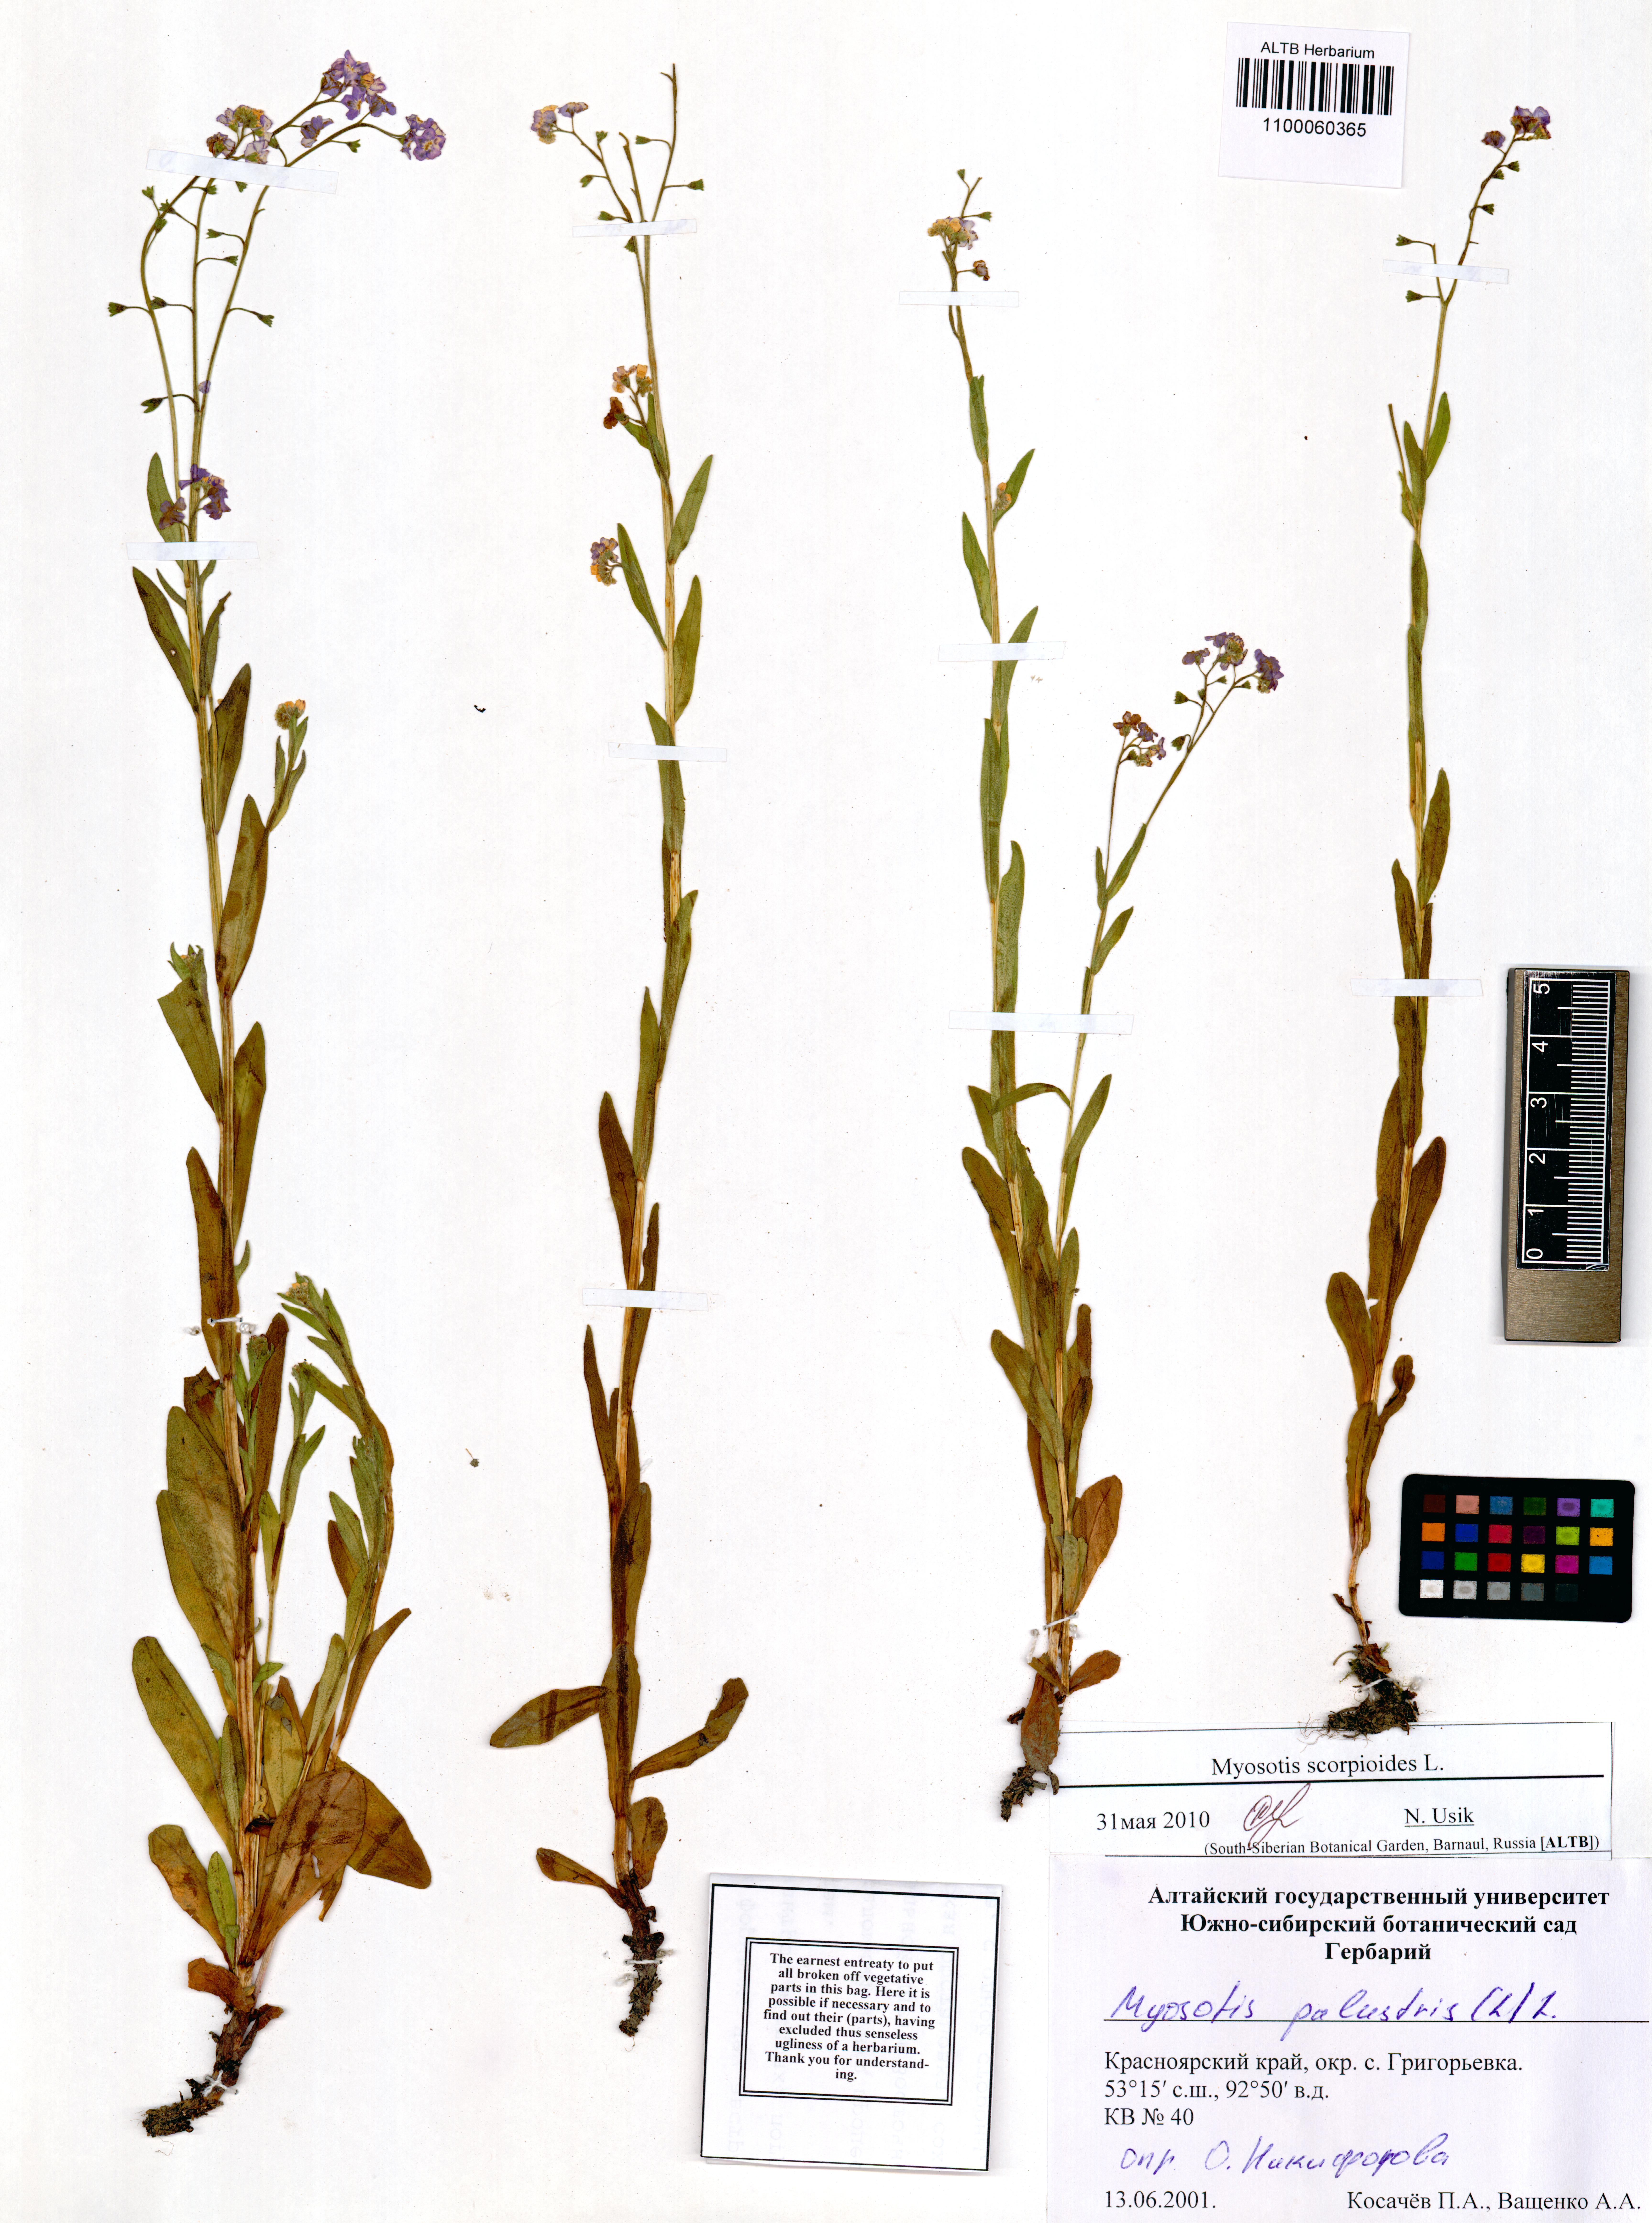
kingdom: Plantae
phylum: Tracheophyta
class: Magnoliopsida
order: Boraginales
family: Boraginaceae
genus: Myosotis
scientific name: Myosotis scorpioides
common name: Water forget-me-not
